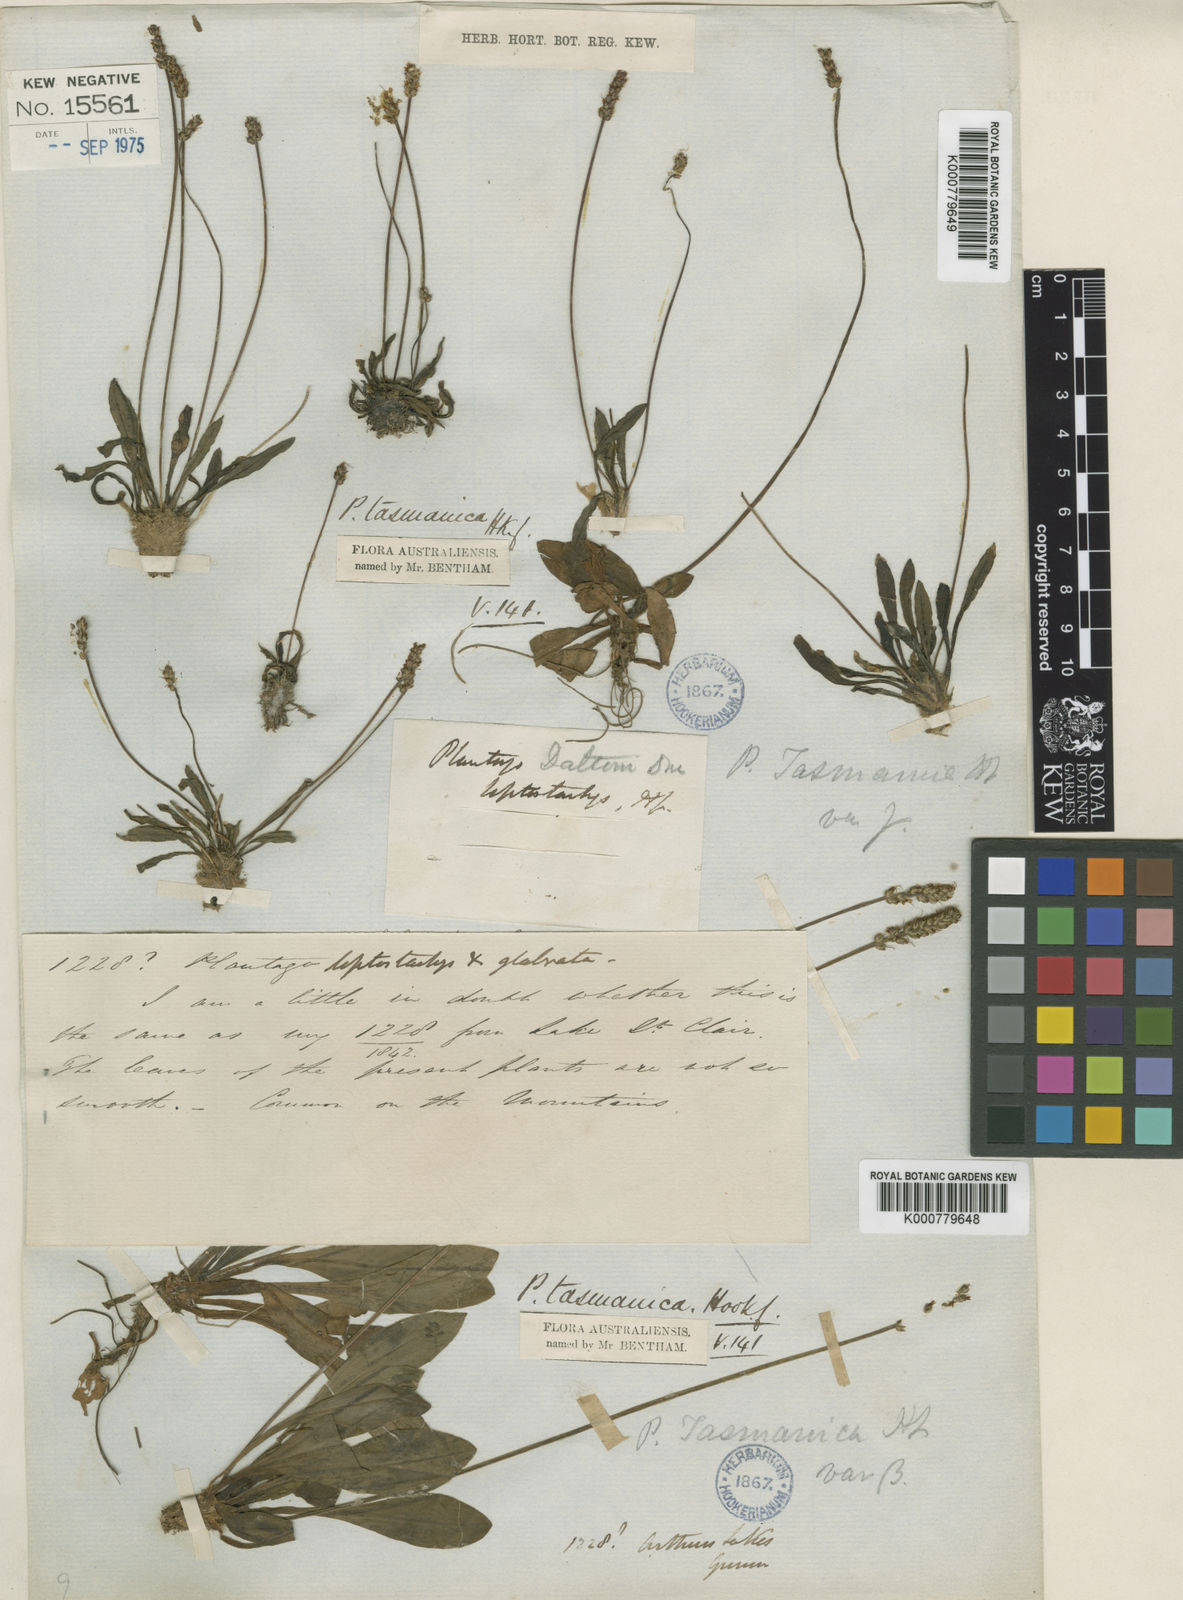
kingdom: Plantae
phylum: Tracheophyta
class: Magnoliopsida
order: Lamiales
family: Plantaginaceae
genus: Plantago
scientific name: Plantago tasmanica
